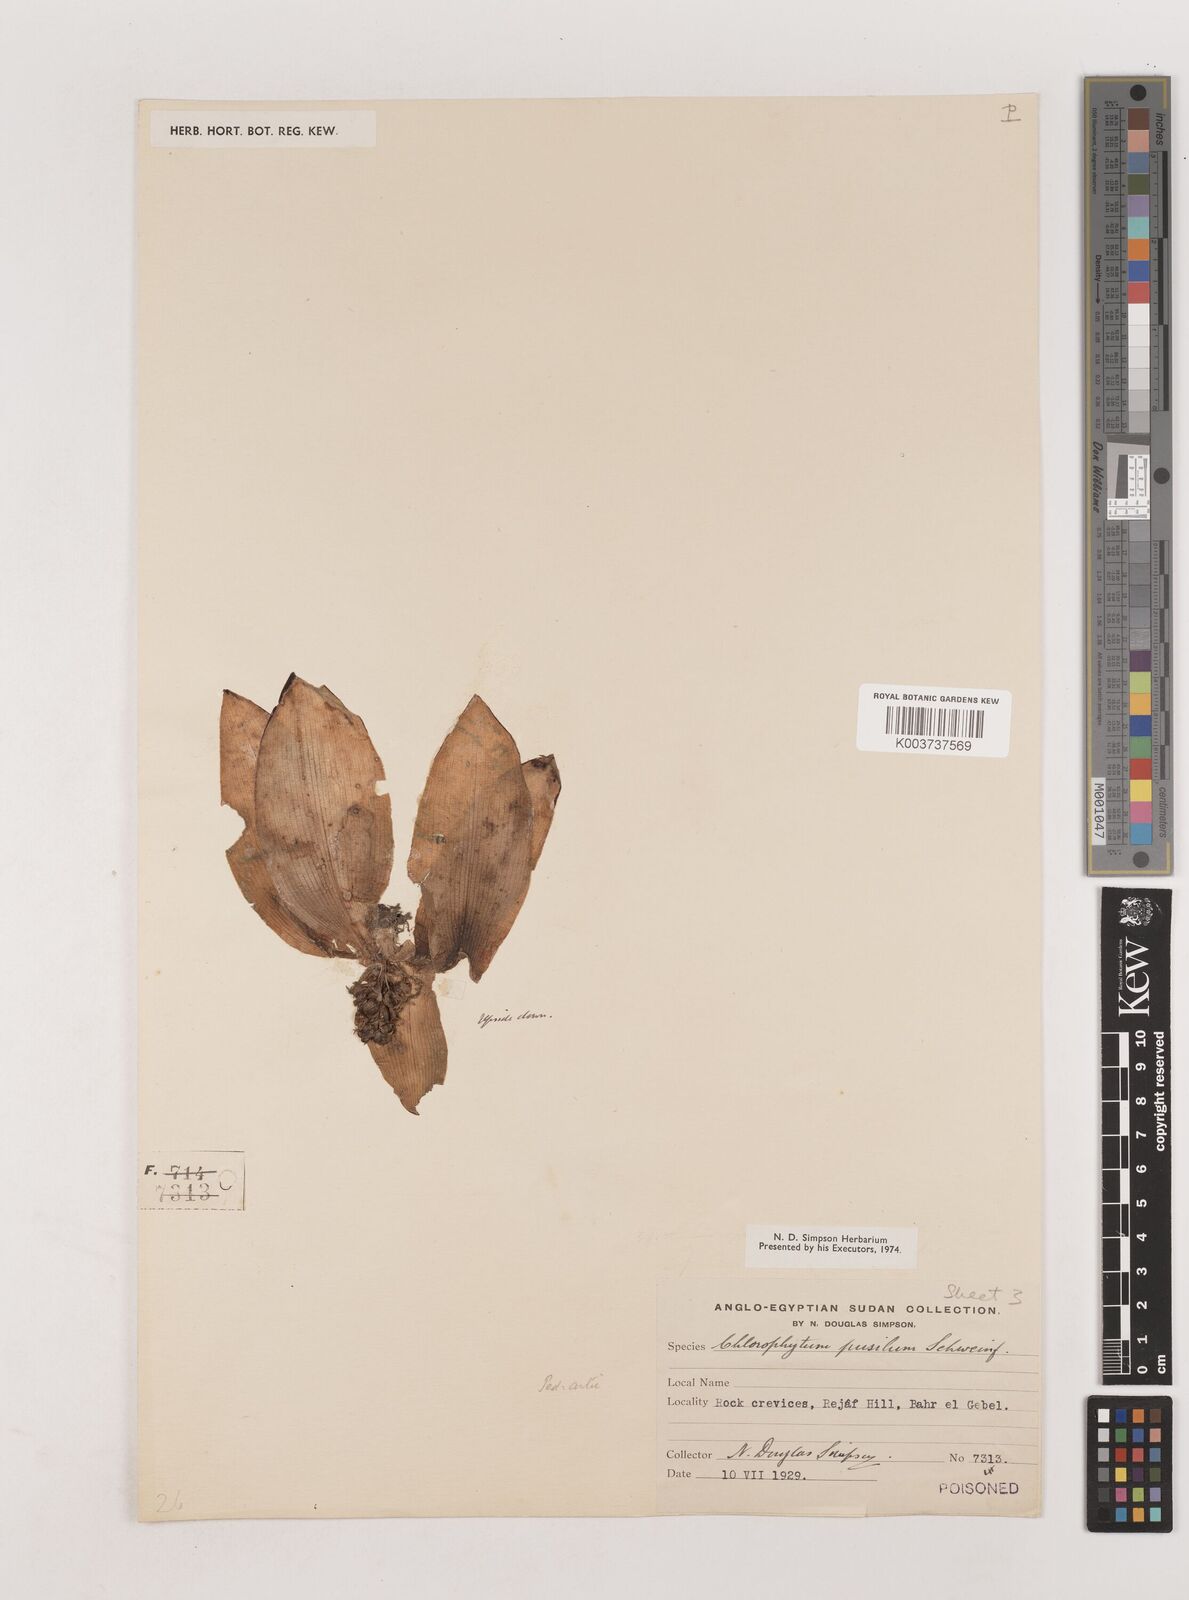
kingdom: Plantae
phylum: Tracheophyta
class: Liliopsida
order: Asparagales
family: Asparagaceae
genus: Chlorophytum
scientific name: Chlorophytum pusillum
